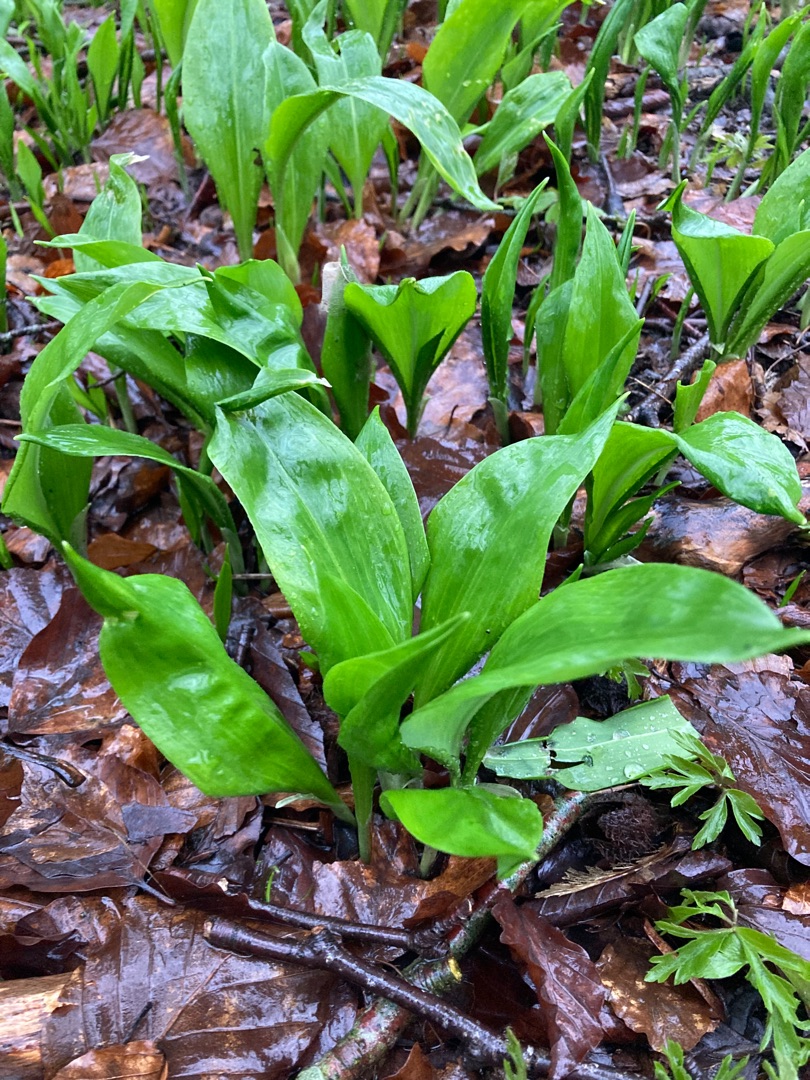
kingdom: Plantae
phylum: Tracheophyta
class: Liliopsida
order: Asparagales
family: Amaryllidaceae
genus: Allium
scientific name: Allium ursinum
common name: Rams-løg
